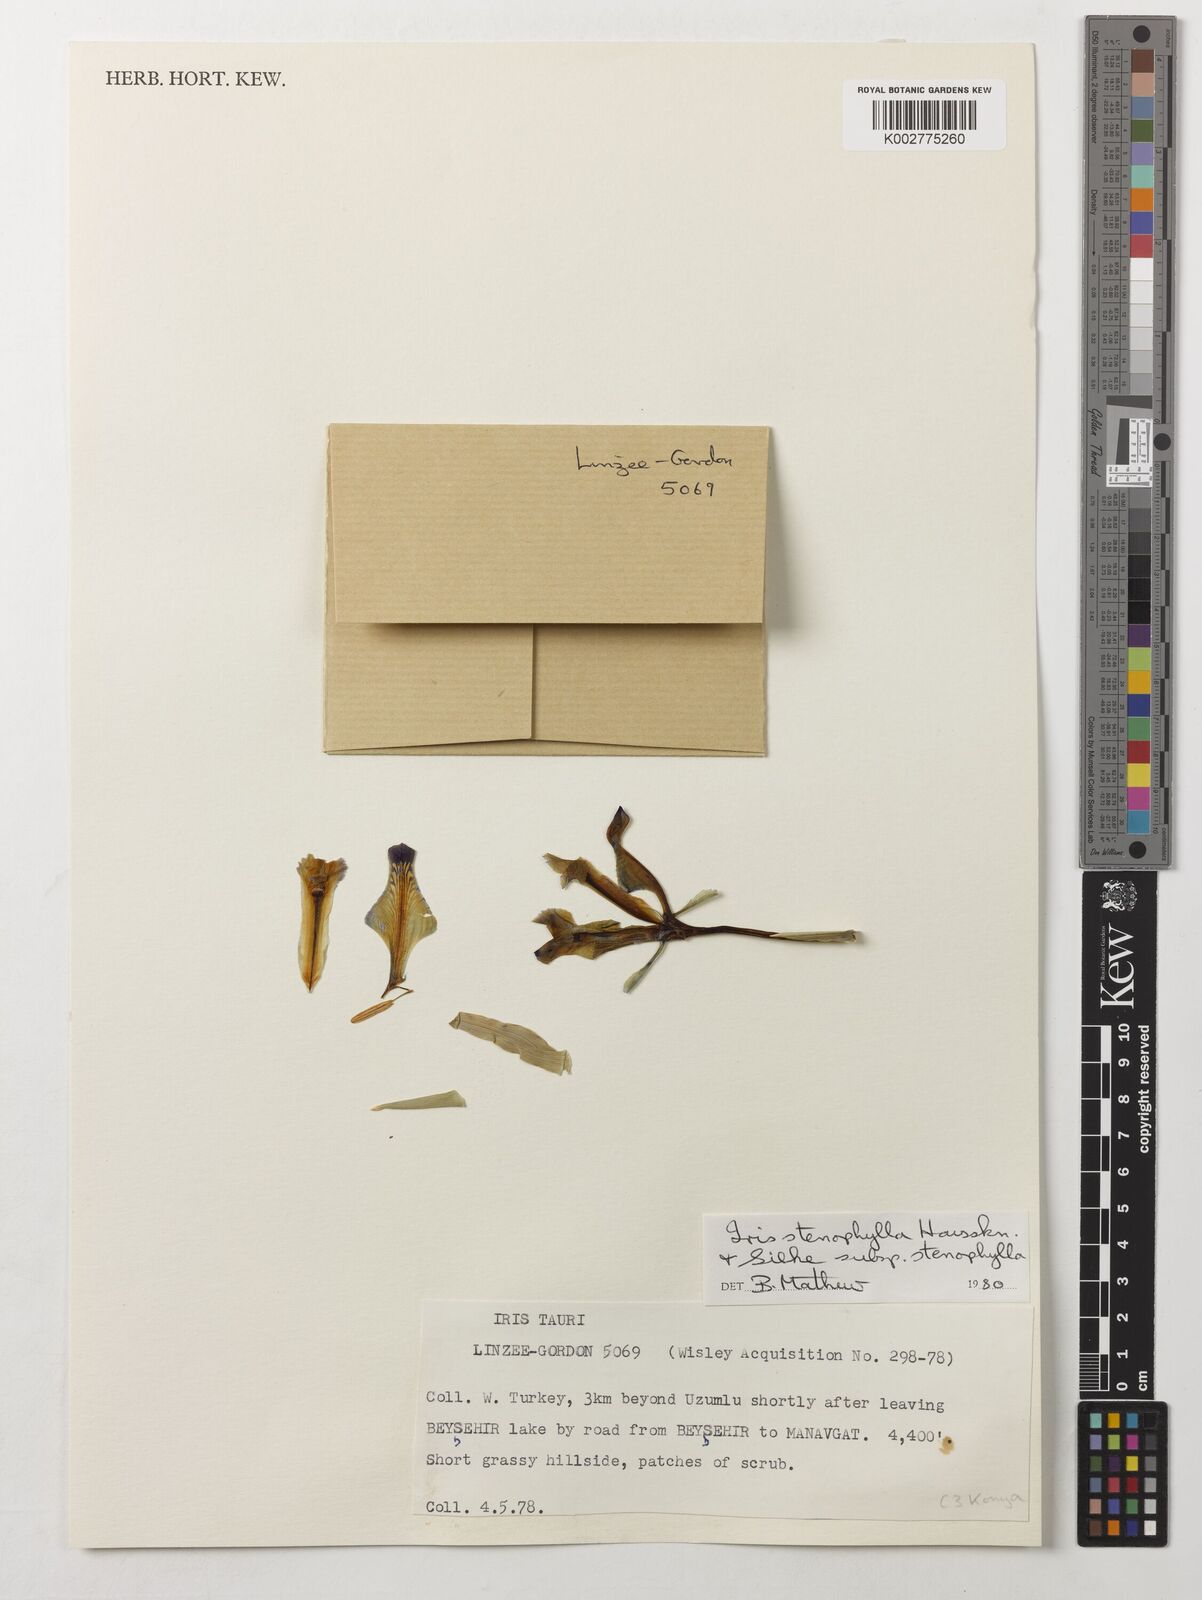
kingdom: Plantae
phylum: Tracheophyta
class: Liliopsida
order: Asparagales
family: Iridaceae
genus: Iris
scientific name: Iris stenophylla
